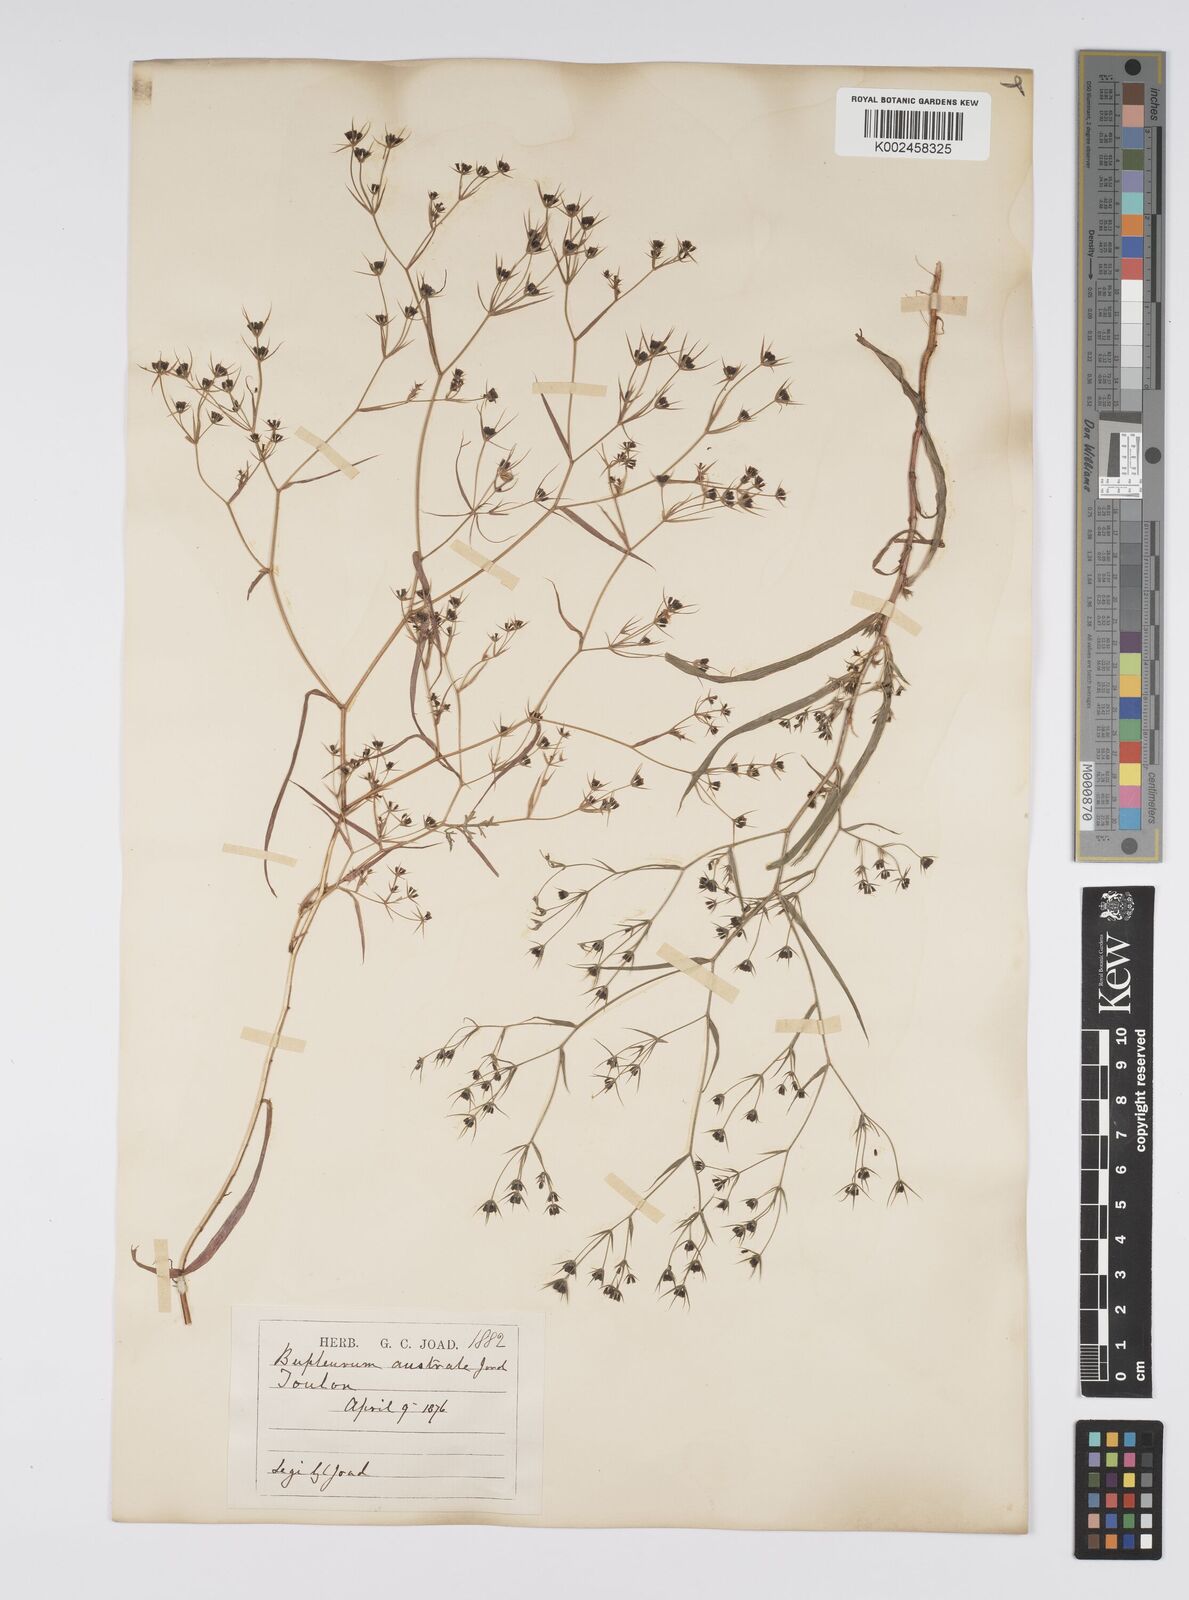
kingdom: Plantae
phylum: Tracheophyta
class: Magnoliopsida
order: Apiales
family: Apiaceae
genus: Bupleurum
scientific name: Bupleurum gerardi
